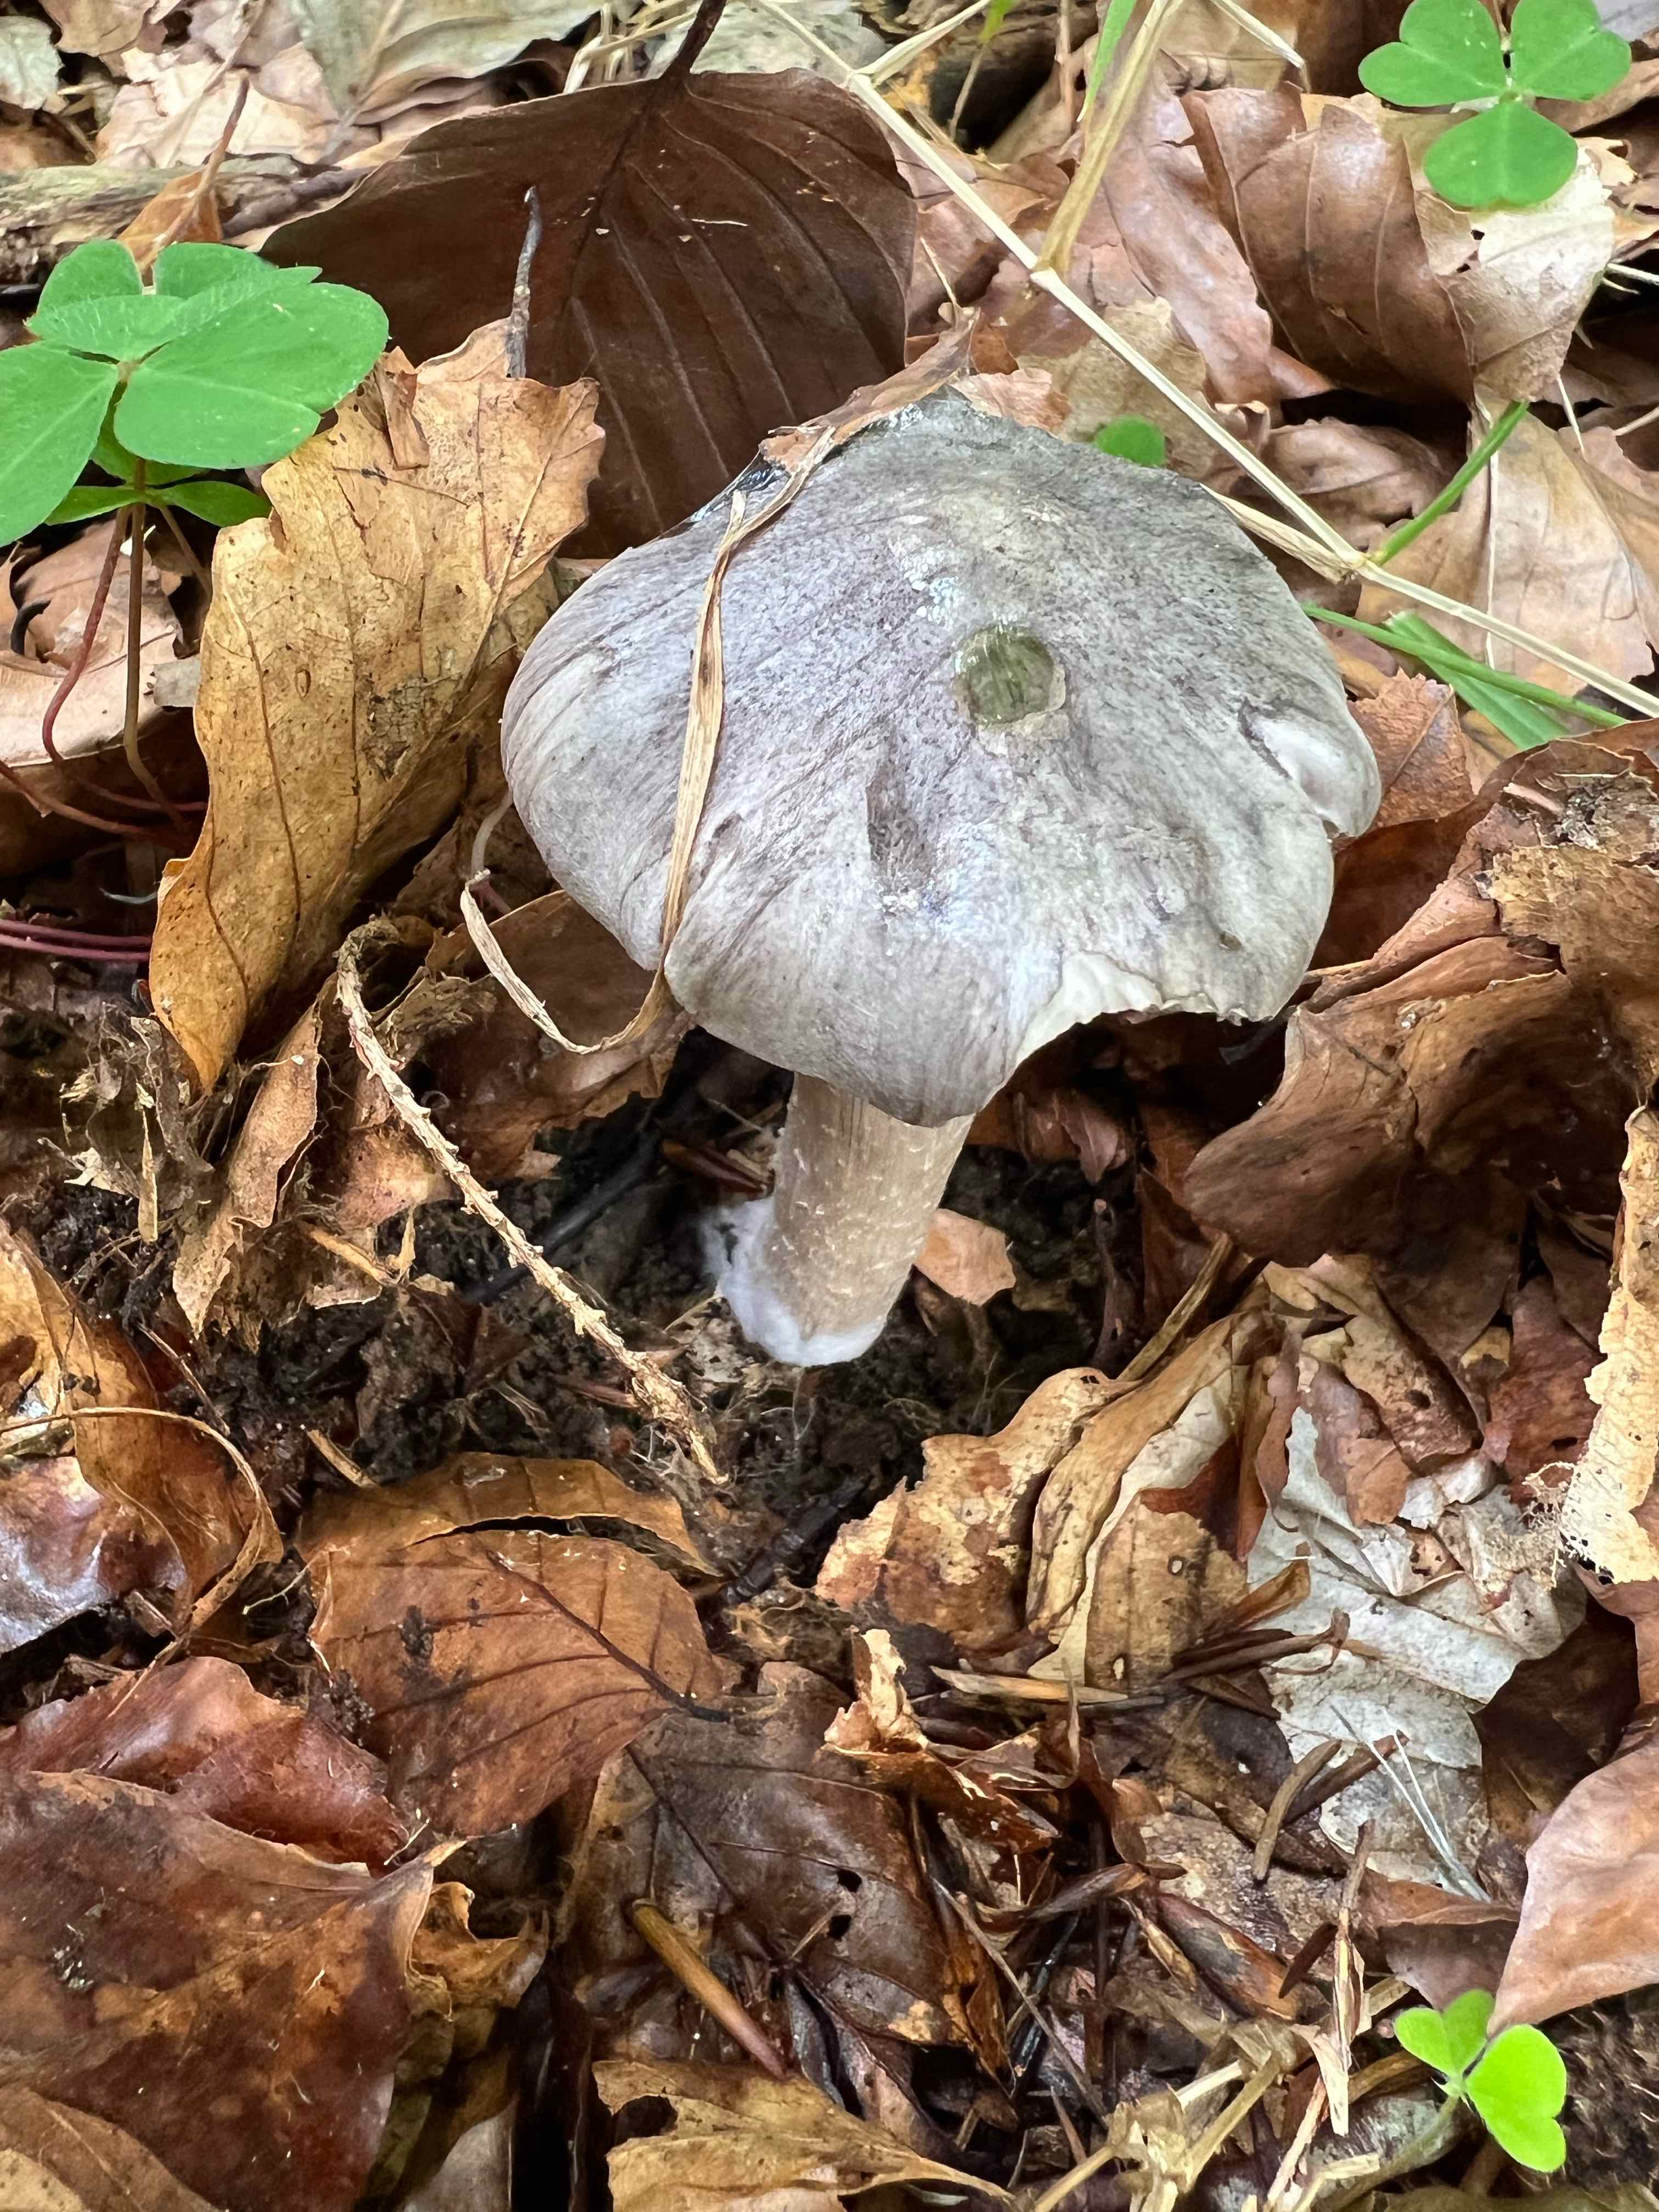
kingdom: Fungi
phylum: Basidiomycota
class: Agaricomycetes
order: Agaricales
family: Tricholomataceae
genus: Tricholoma
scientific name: Tricholoma sciodes
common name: stribet ridderhat
